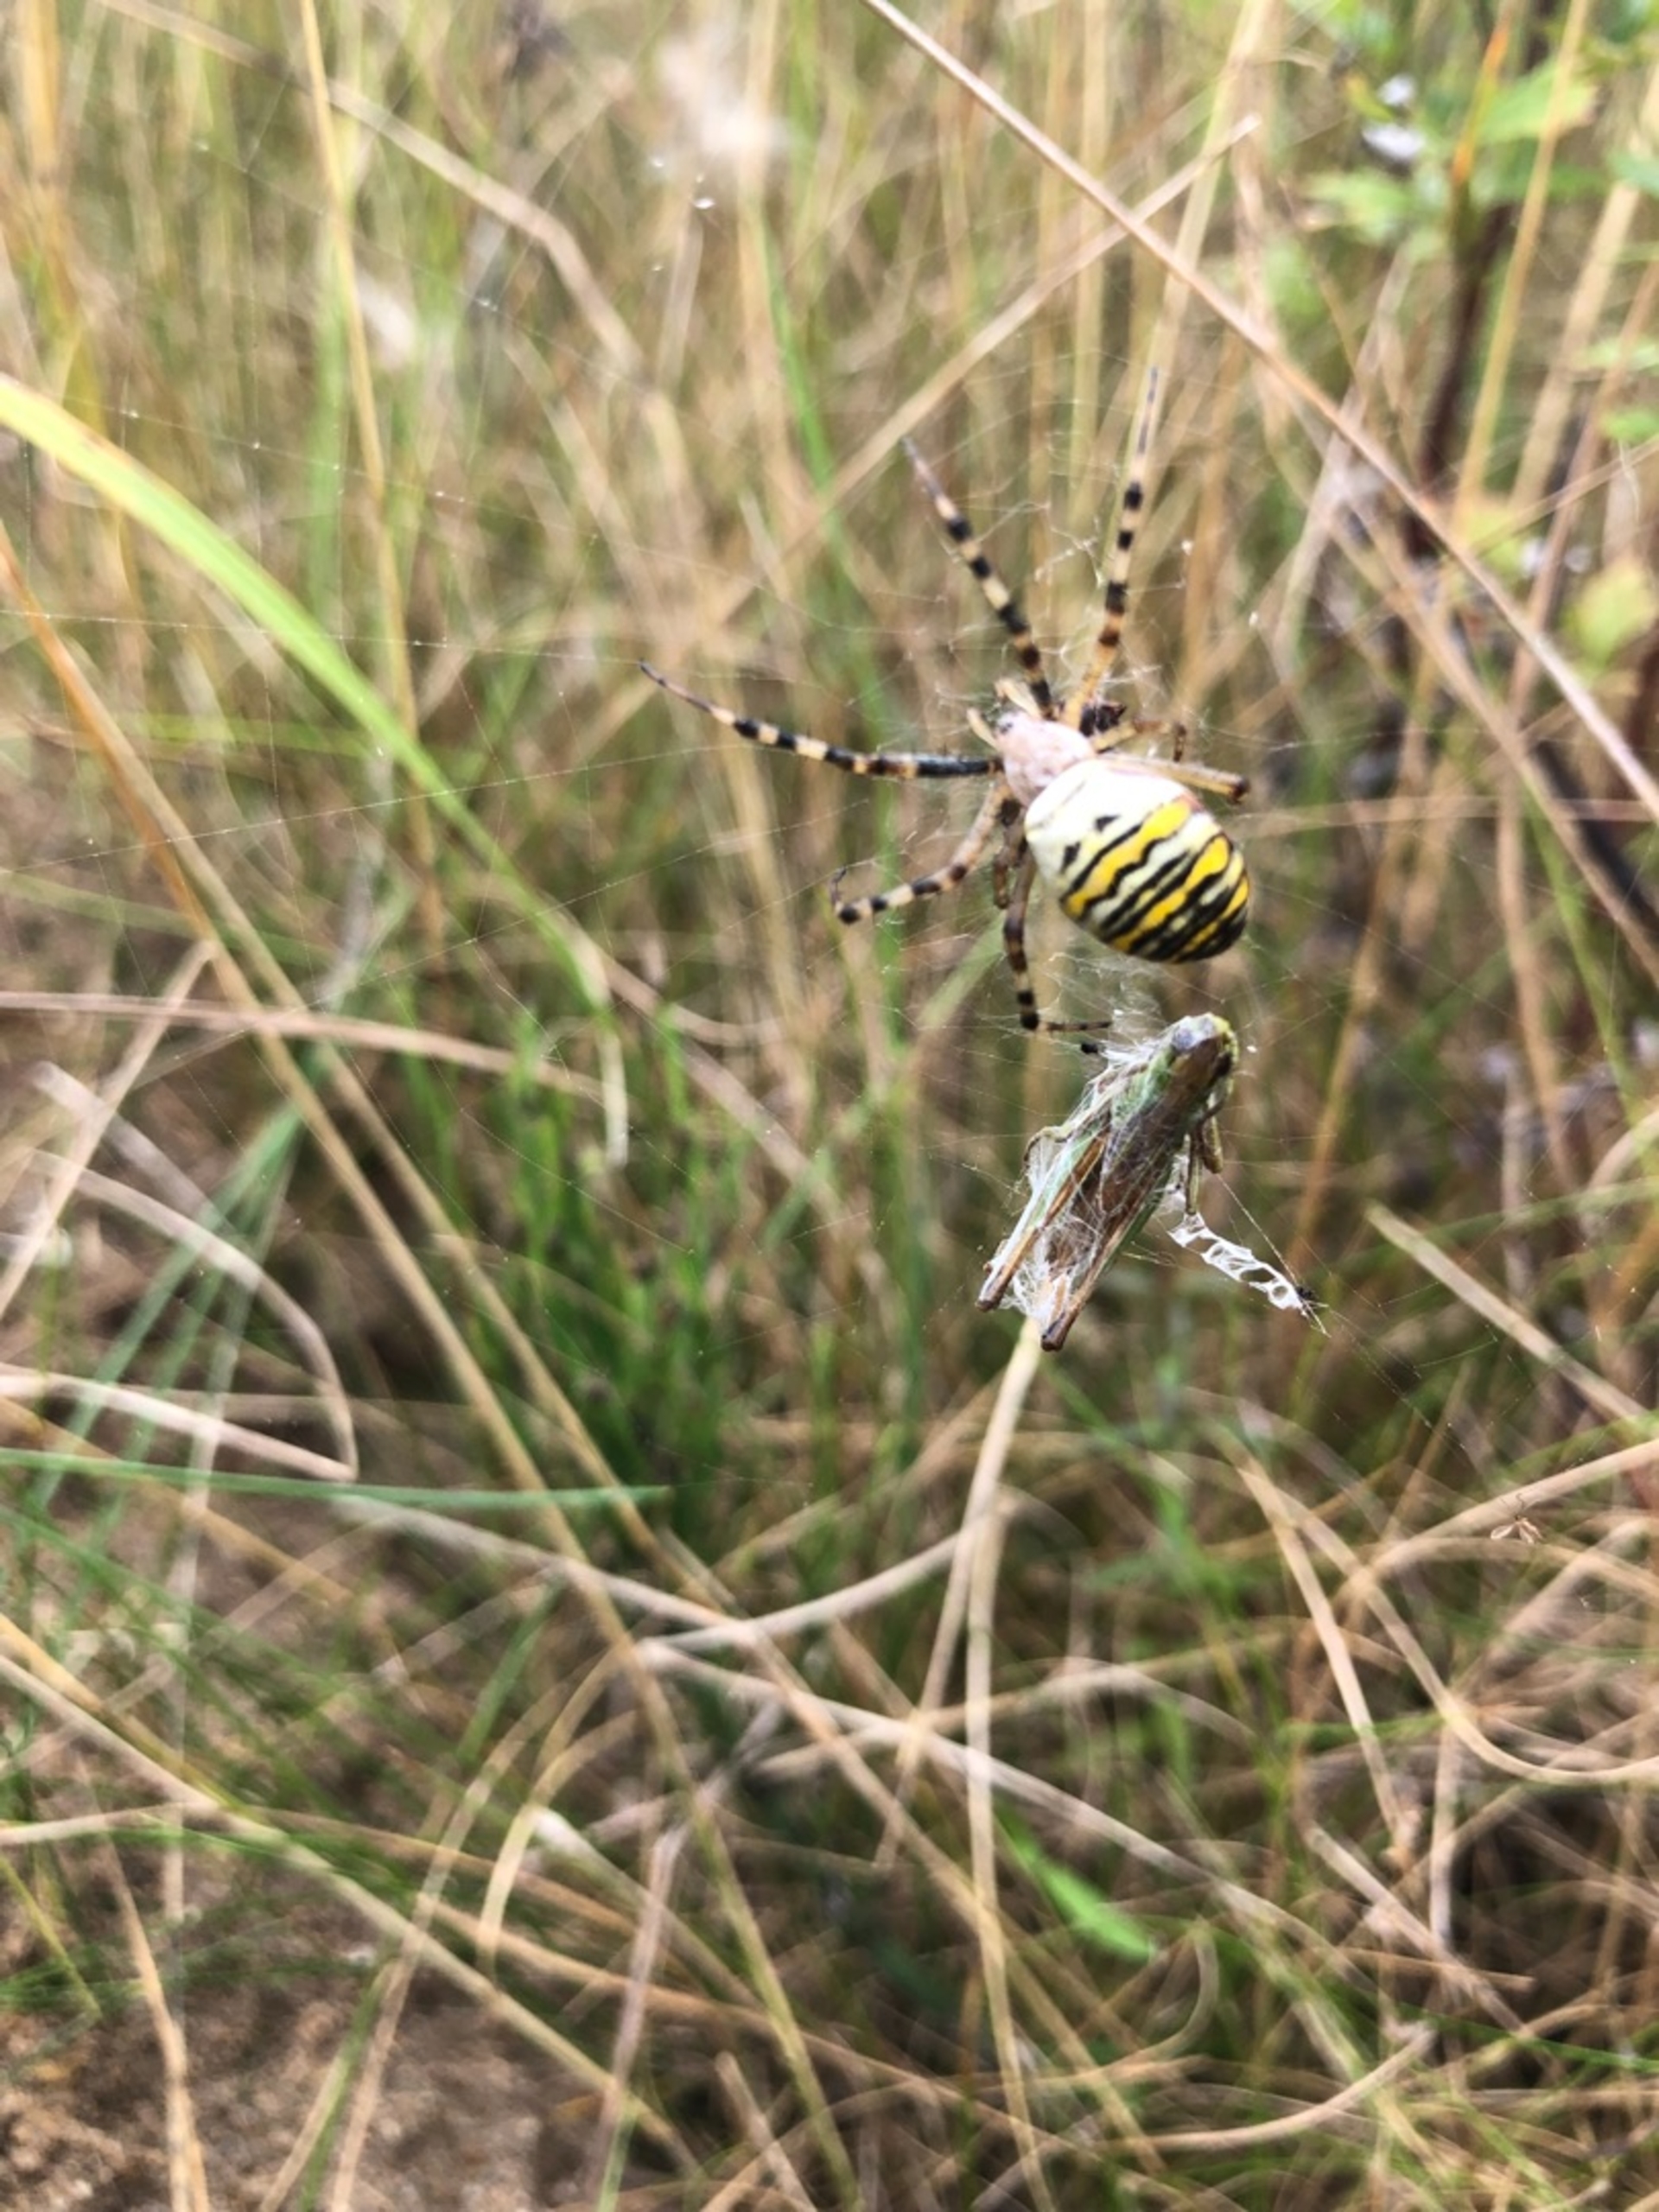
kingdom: Animalia
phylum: Arthropoda
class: Arachnida
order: Araneae
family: Araneidae
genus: Argiope
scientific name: Argiope bruennichi
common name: Hvepseedderkop
